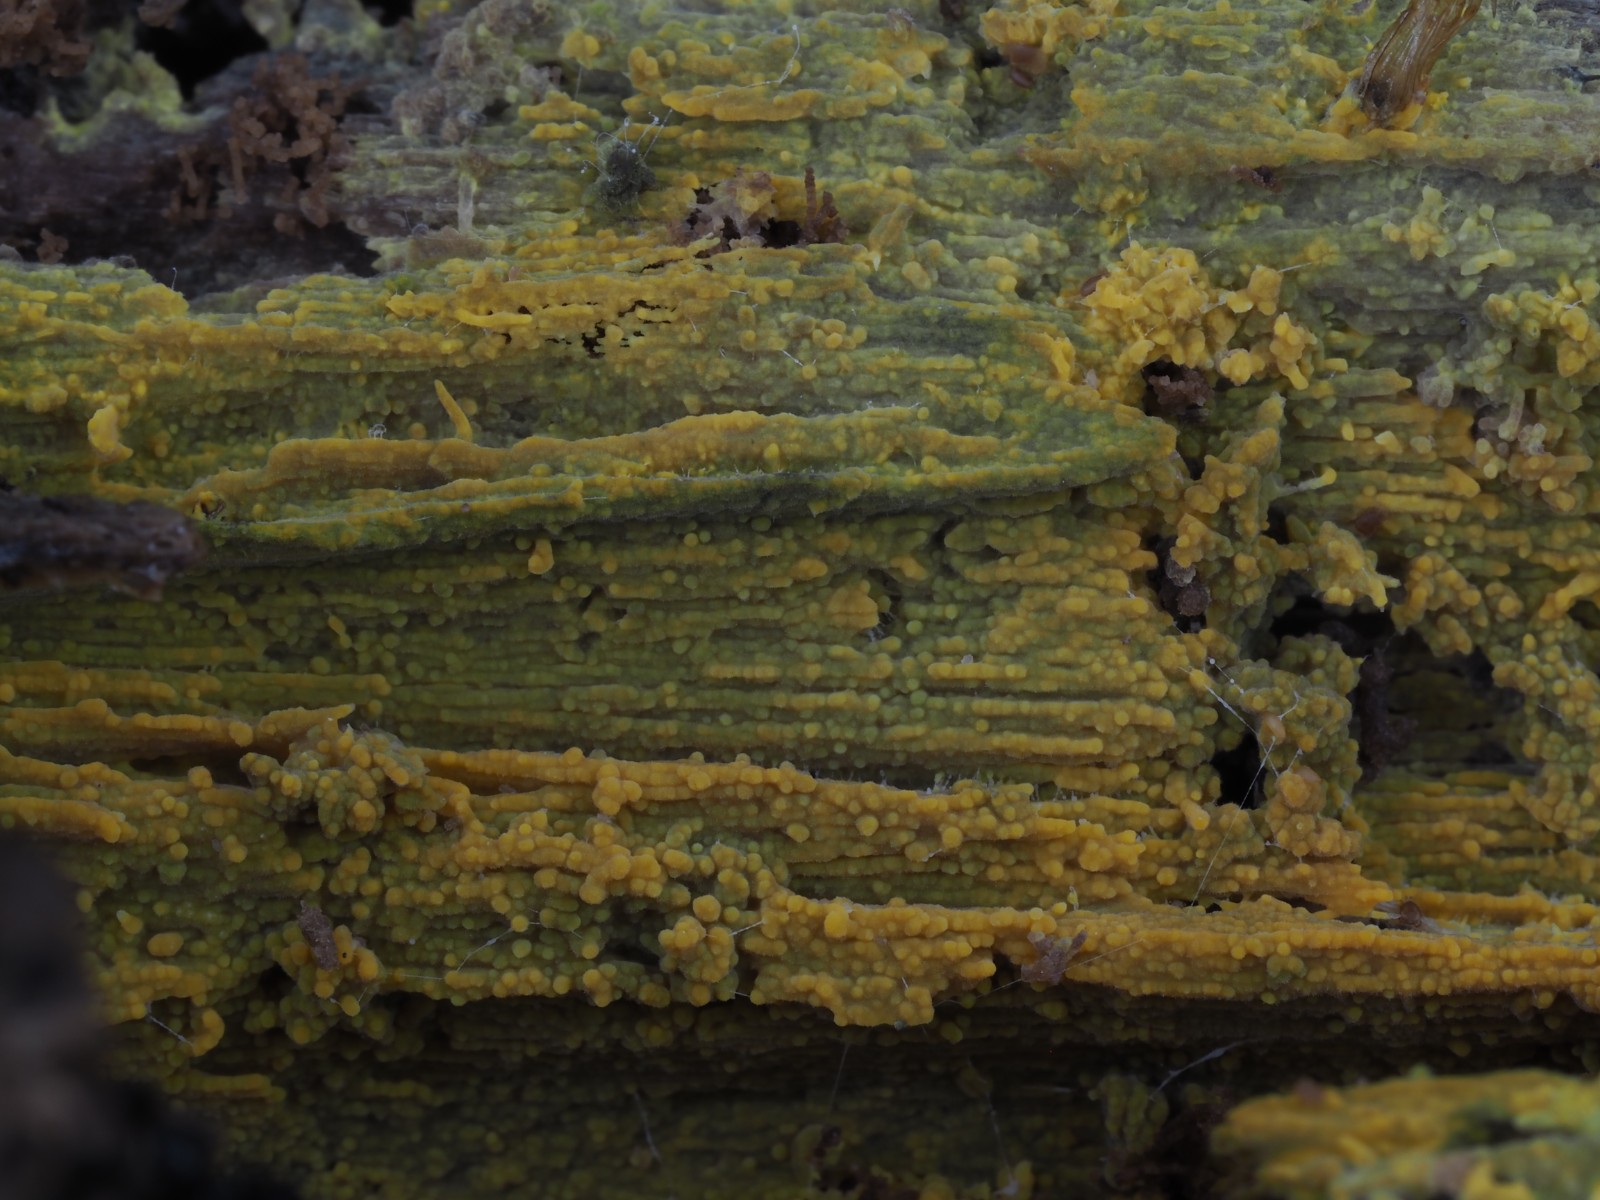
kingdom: Fungi
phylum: Basidiomycota
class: Agaricomycetes
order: Polyporales
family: Meruliaceae
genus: Phlebiodontia
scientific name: Phlebiodontia subochracea
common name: svovl-åresvamp
